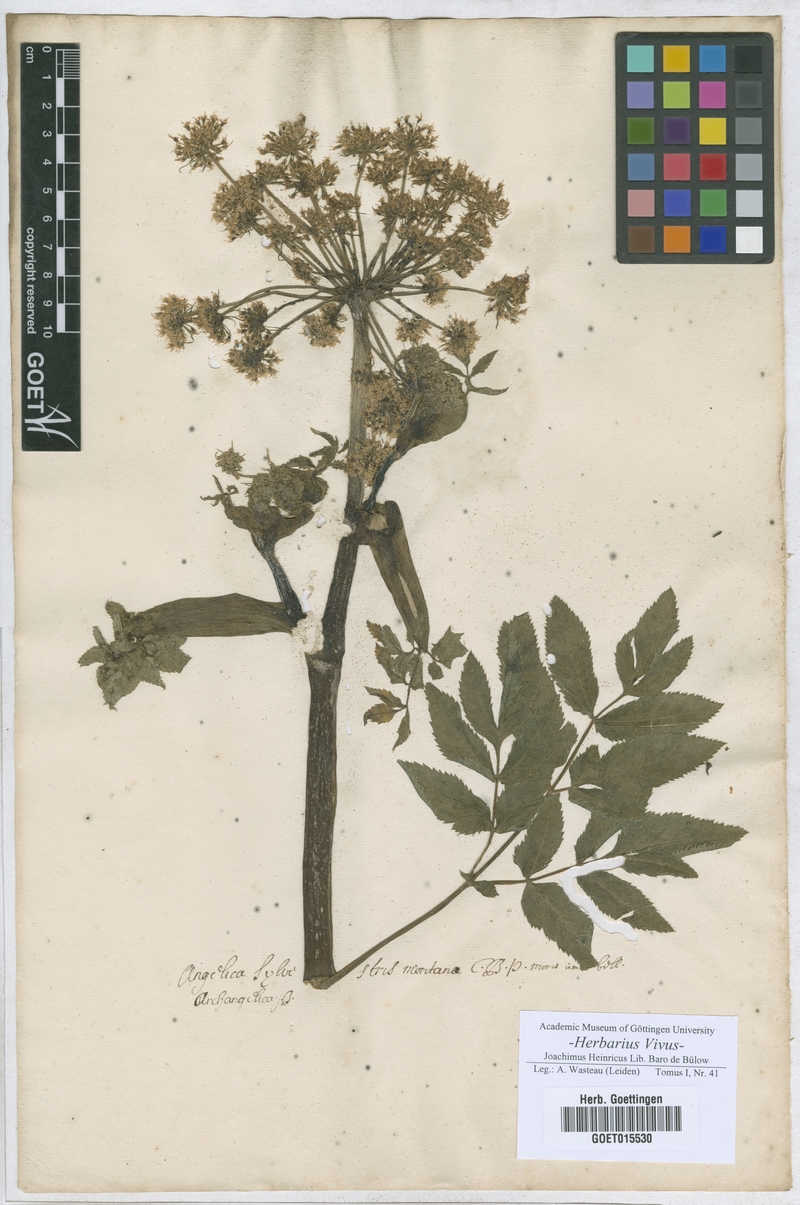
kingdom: Plantae
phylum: Tracheophyta
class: Magnoliopsida
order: Apiales
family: Apiaceae
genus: Angelica
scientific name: Angelica sylvestris
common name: Wild angelica
